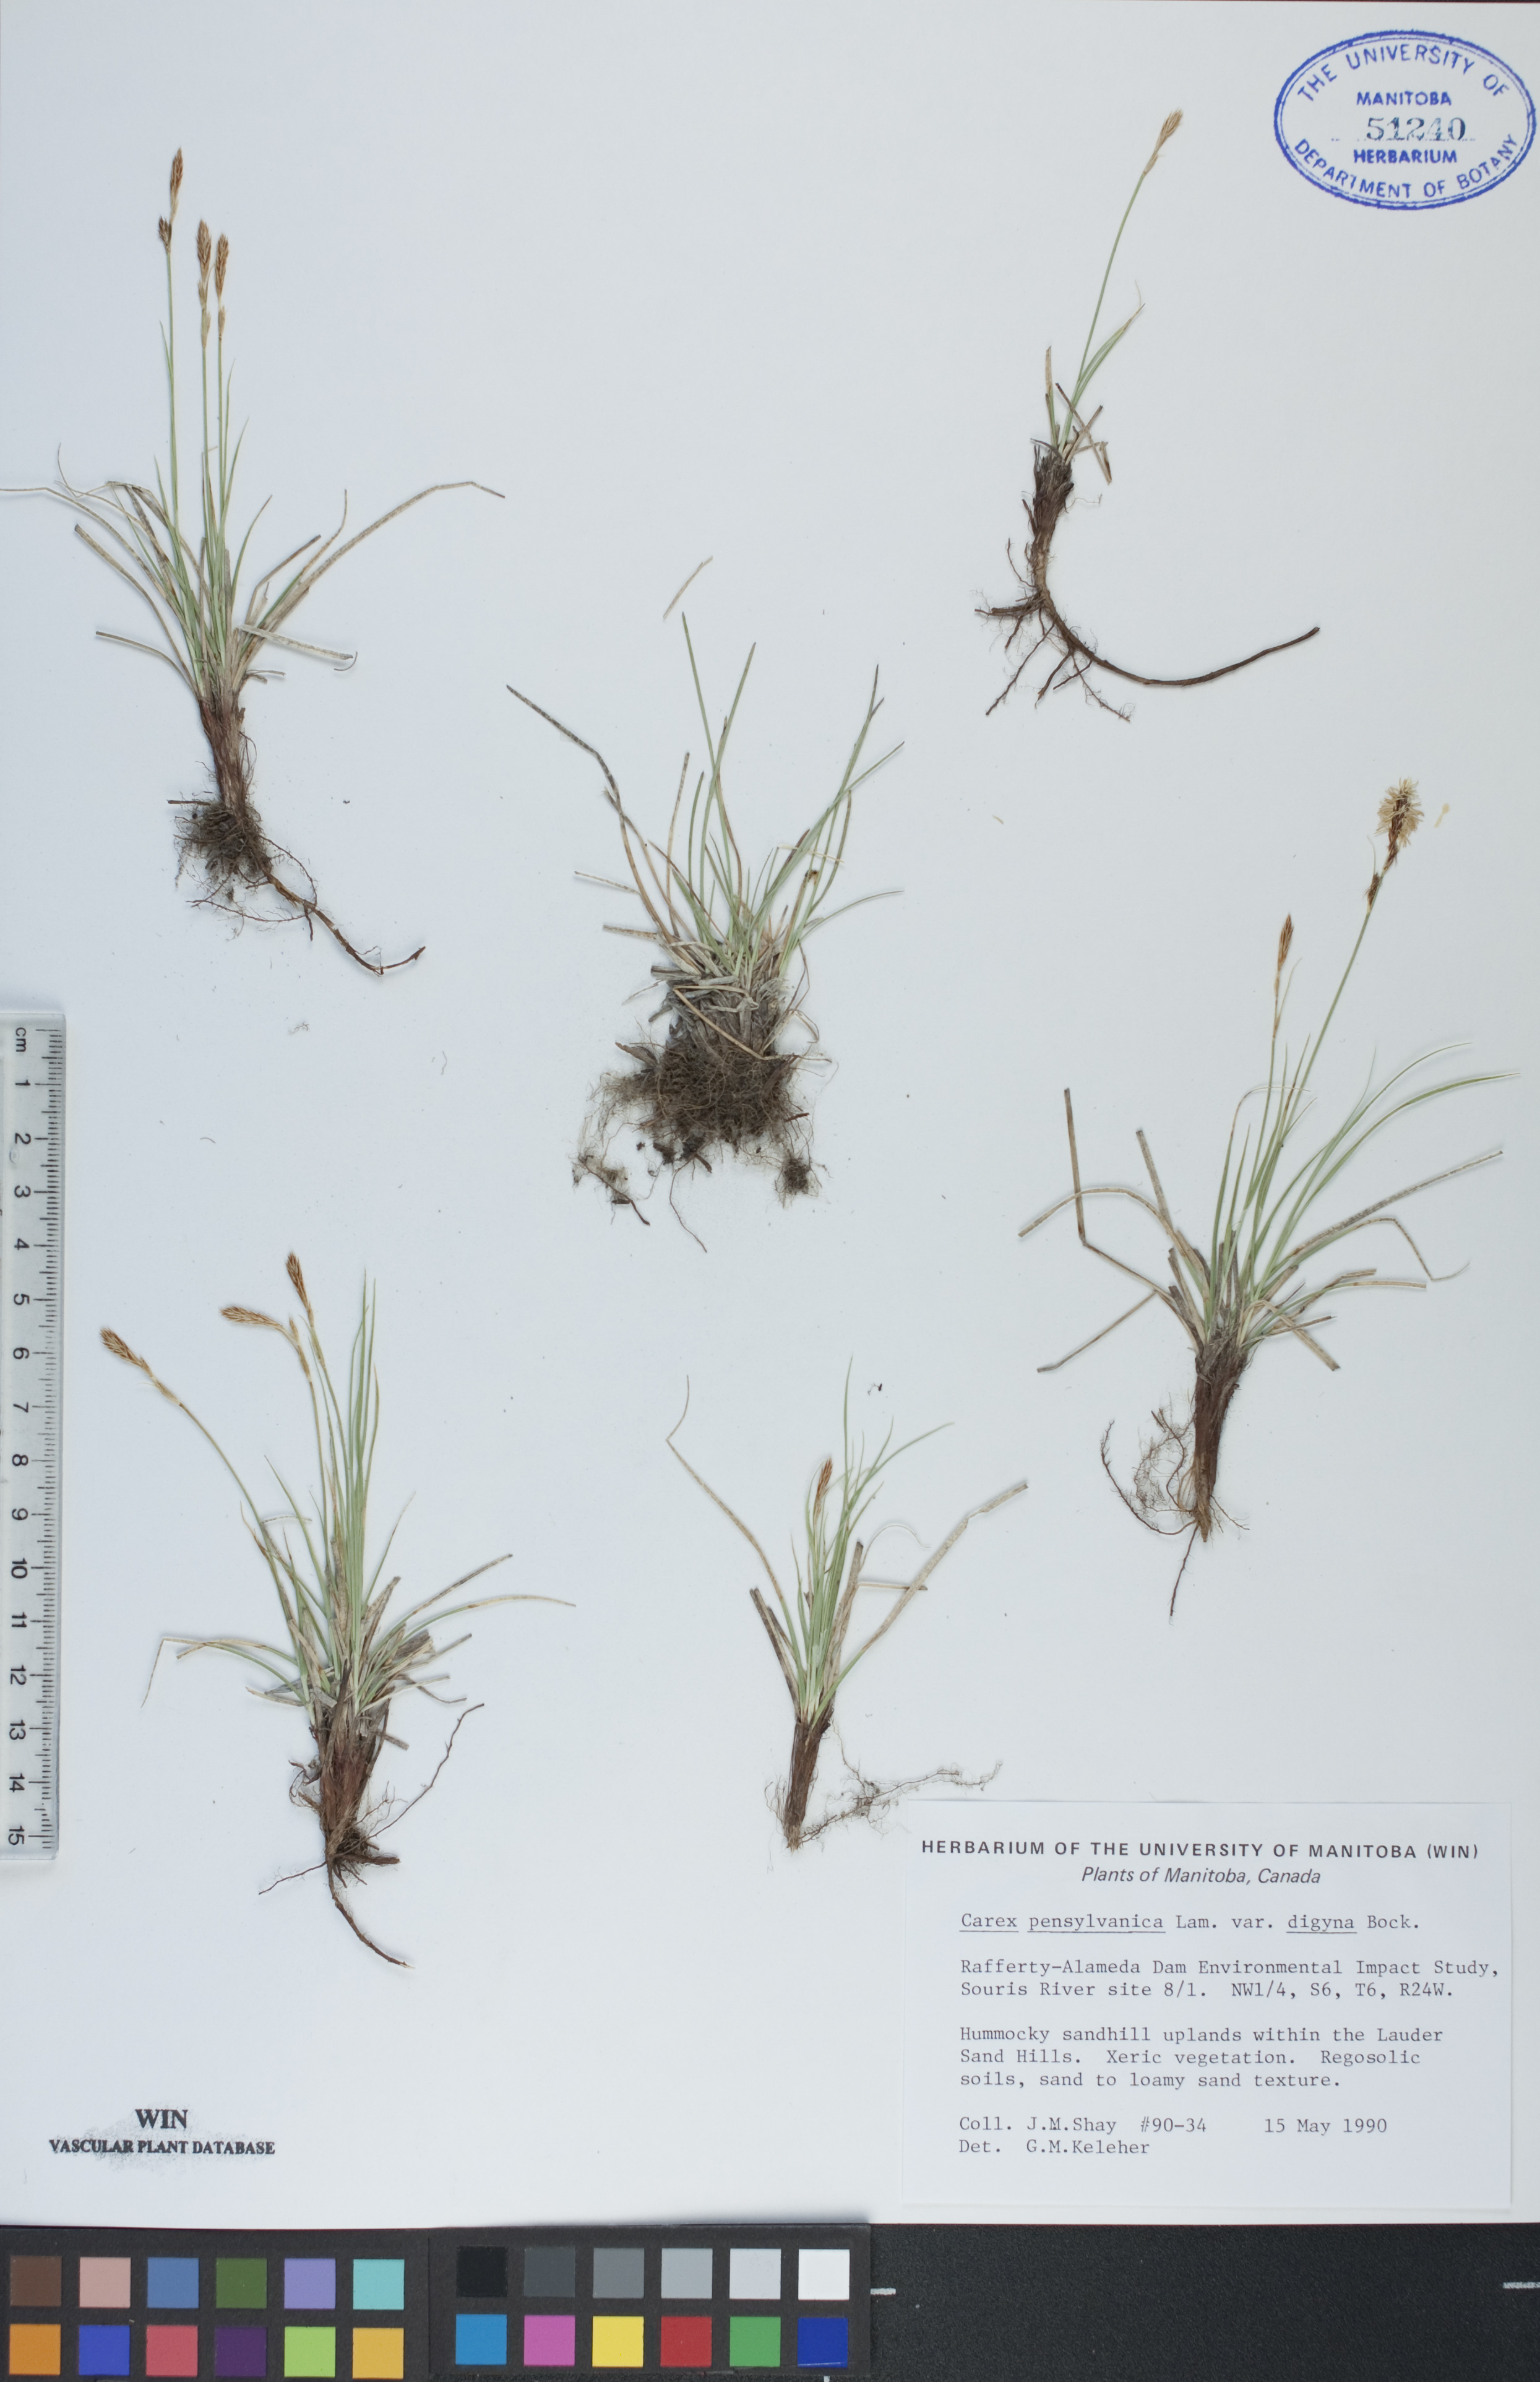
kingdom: Plantae
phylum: Tracheophyta
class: Liliopsida
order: Poales
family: Cyperaceae
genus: Carex
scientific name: Carex inops
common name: Long-stolon sedge
